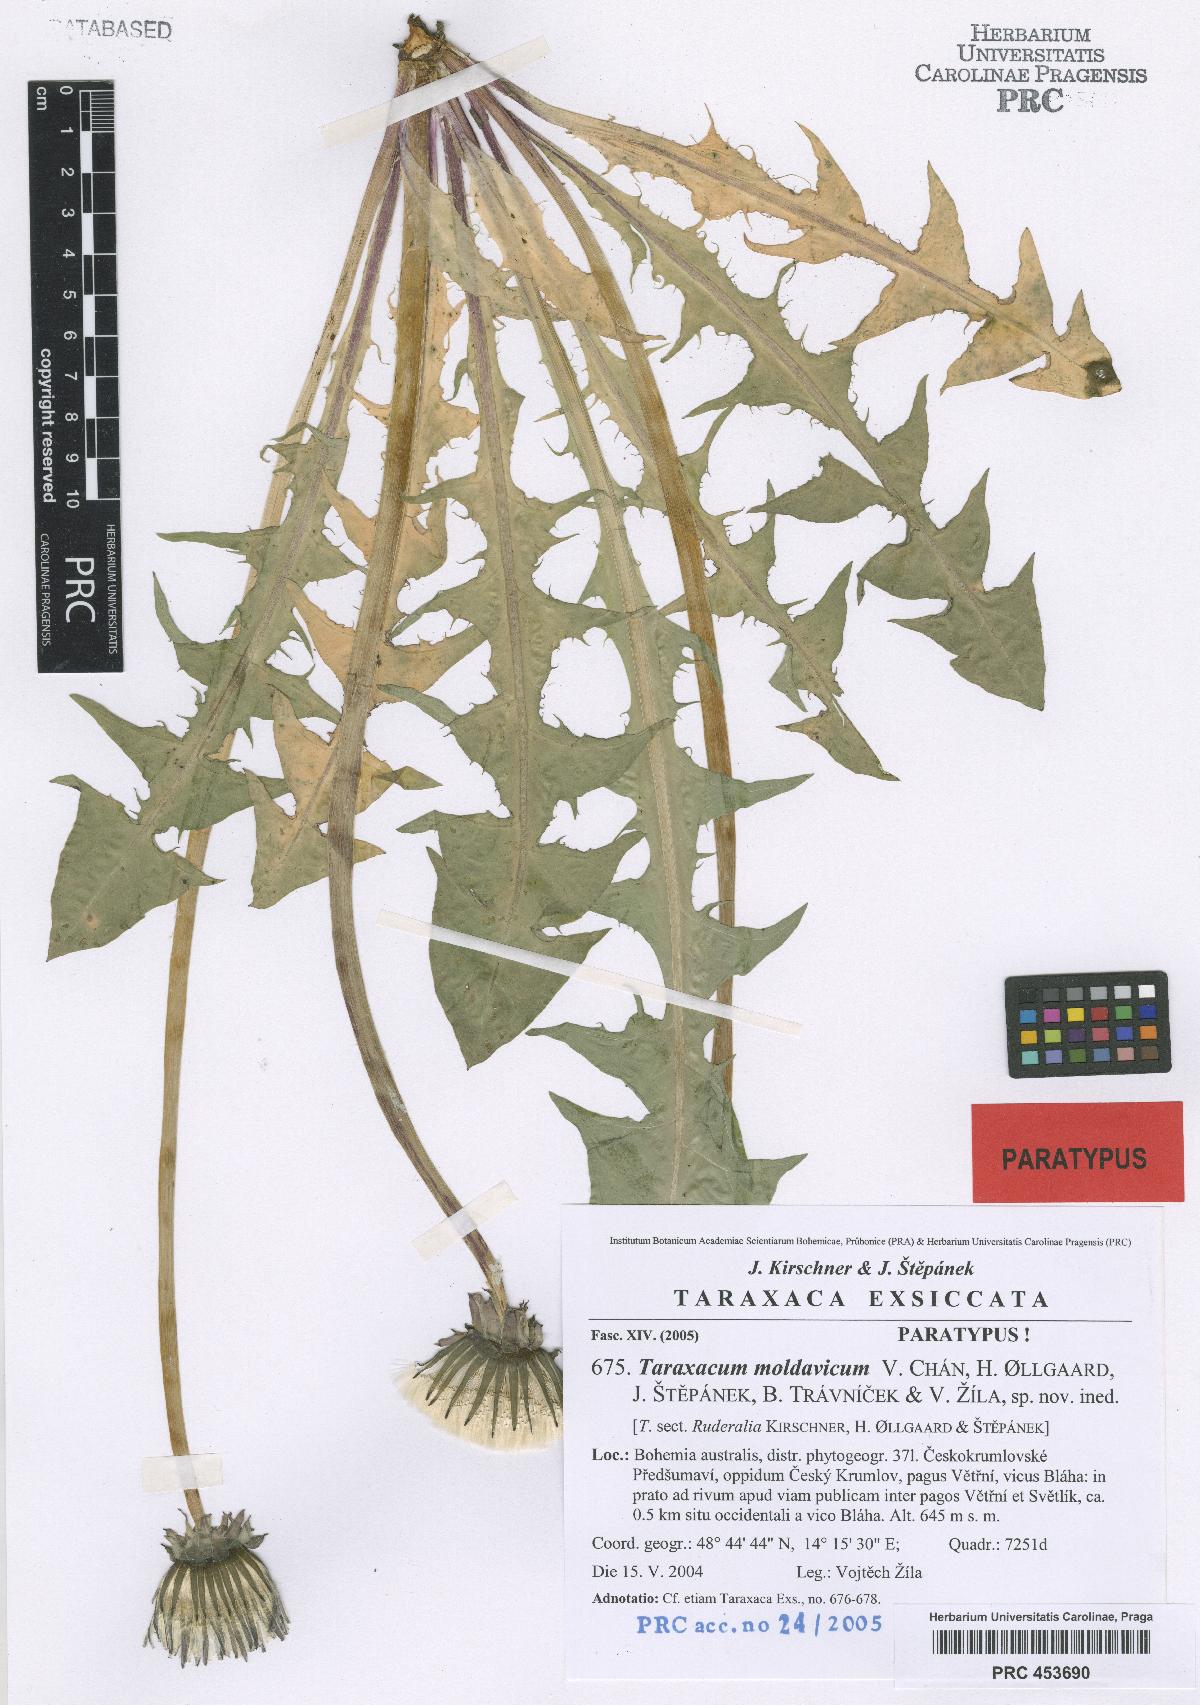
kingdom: Plantae
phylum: Tracheophyta
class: Magnoliopsida
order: Asterales
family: Asteraceae
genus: Taraxacum
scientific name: Taraxacum moldavicum
